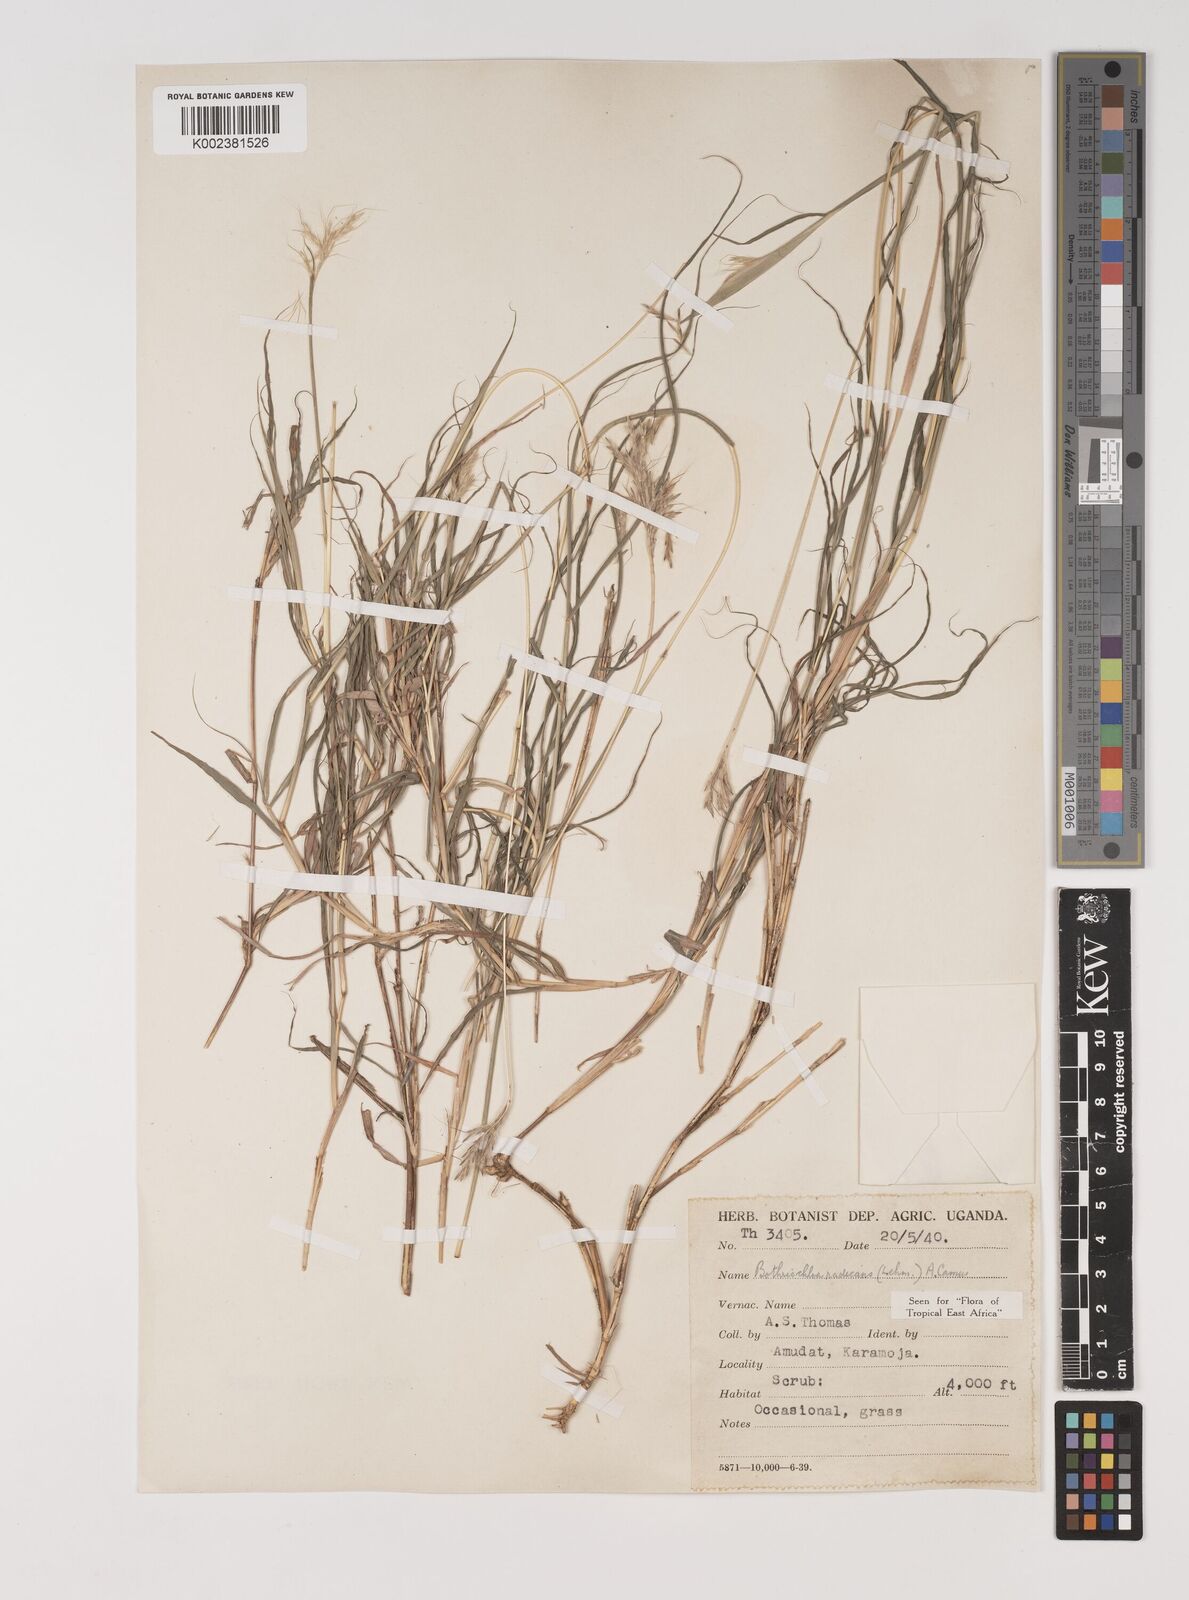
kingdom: Plantae
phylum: Tracheophyta
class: Liliopsida
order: Poales
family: Poaceae
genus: Bothriochloa
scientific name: Bothriochloa radicans
